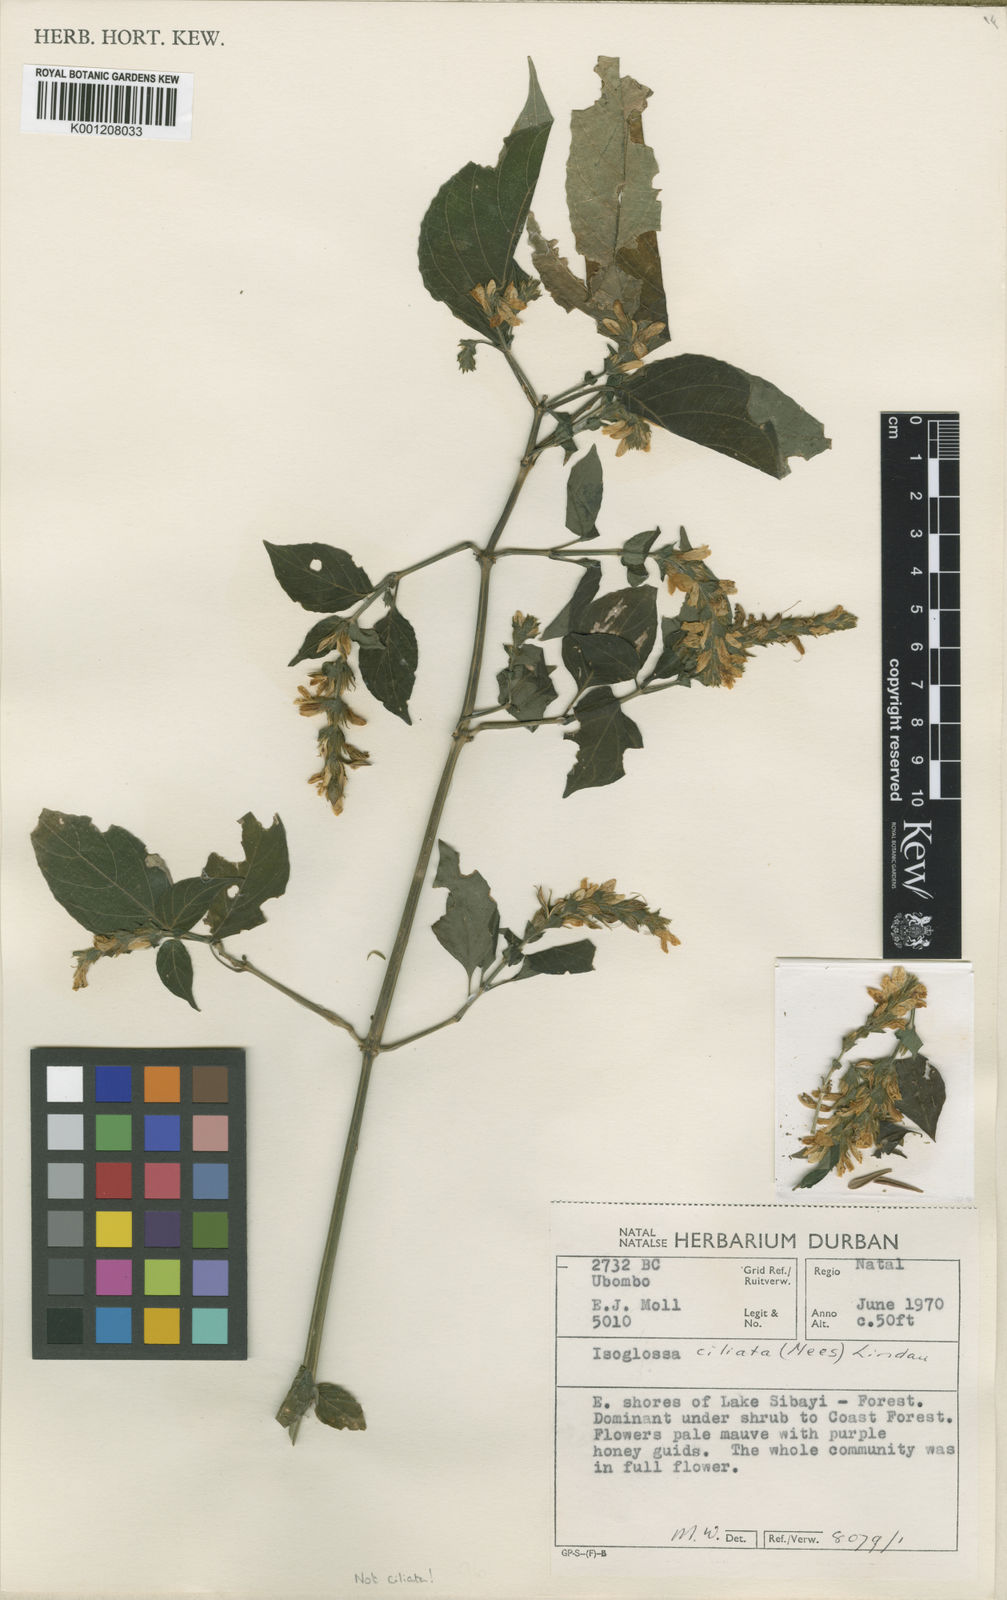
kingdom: Plantae
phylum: Tracheophyta
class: Magnoliopsida
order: Lamiales
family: Acanthaceae
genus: Isoglossa
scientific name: Isoglossa woodii
